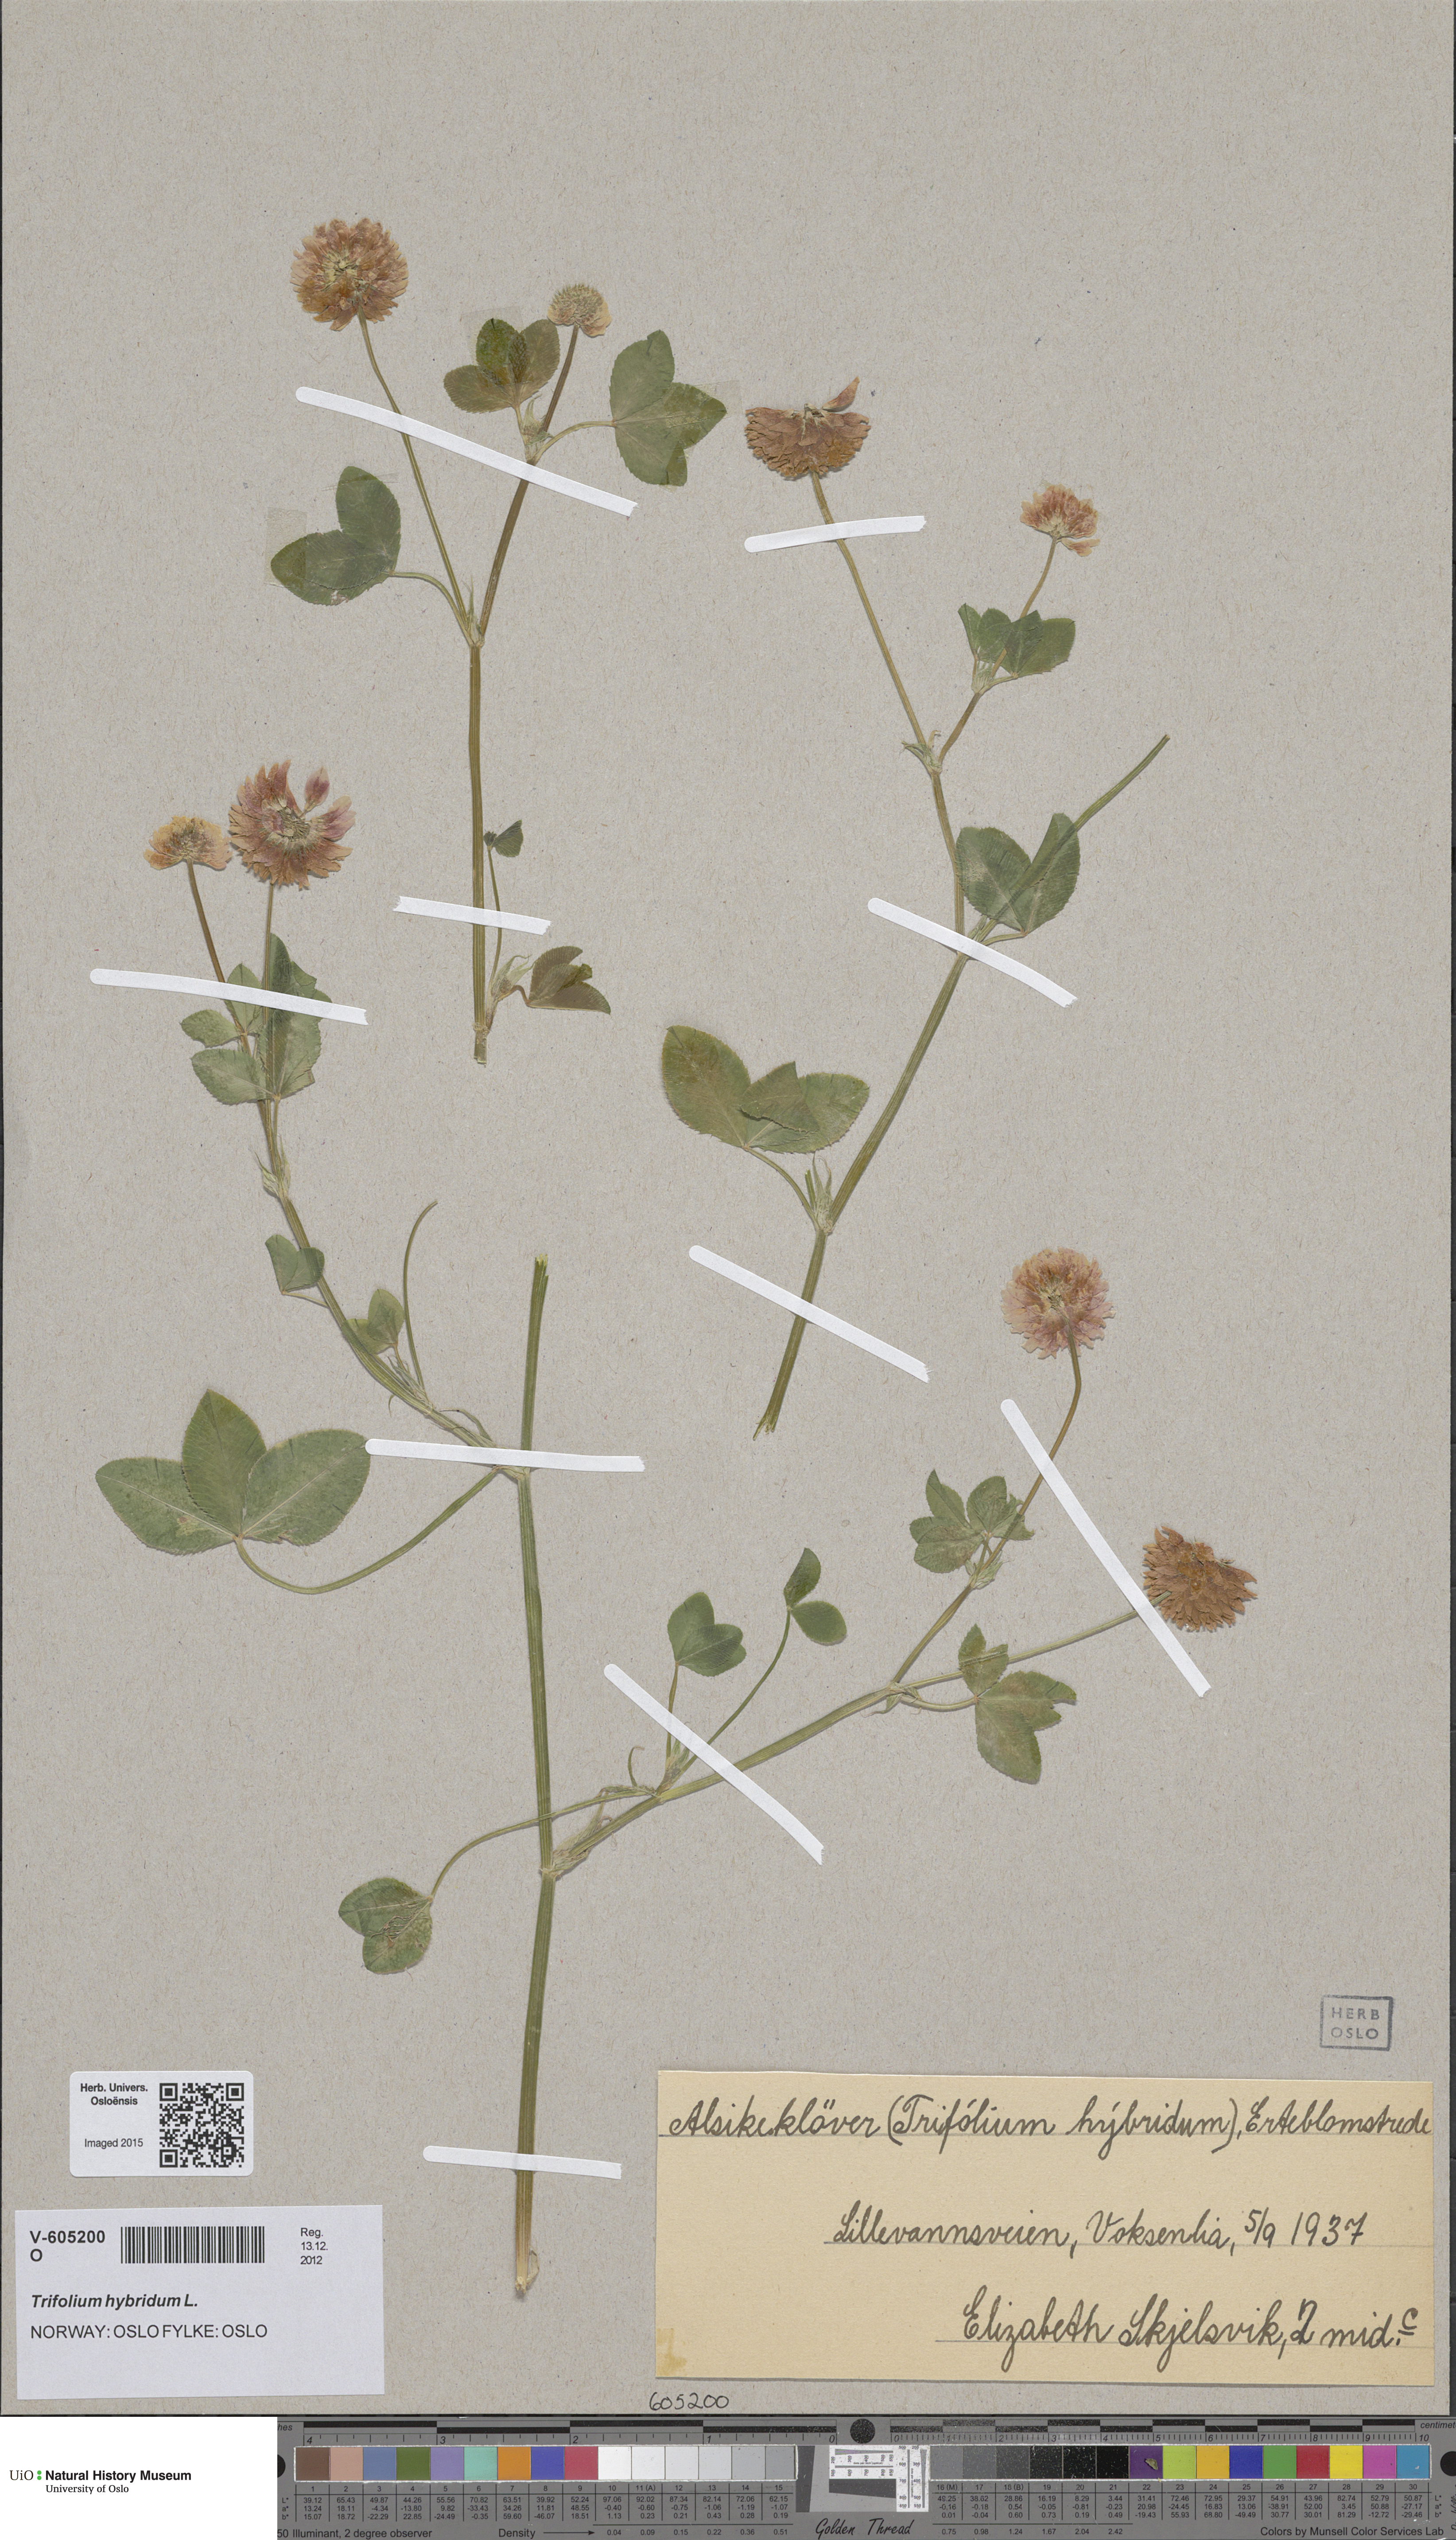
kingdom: Plantae
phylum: Tracheophyta
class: Magnoliopsida
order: Fabales
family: Fabaceae
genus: Trifolium
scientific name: Trifolium hybridum
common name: Alsike clover
